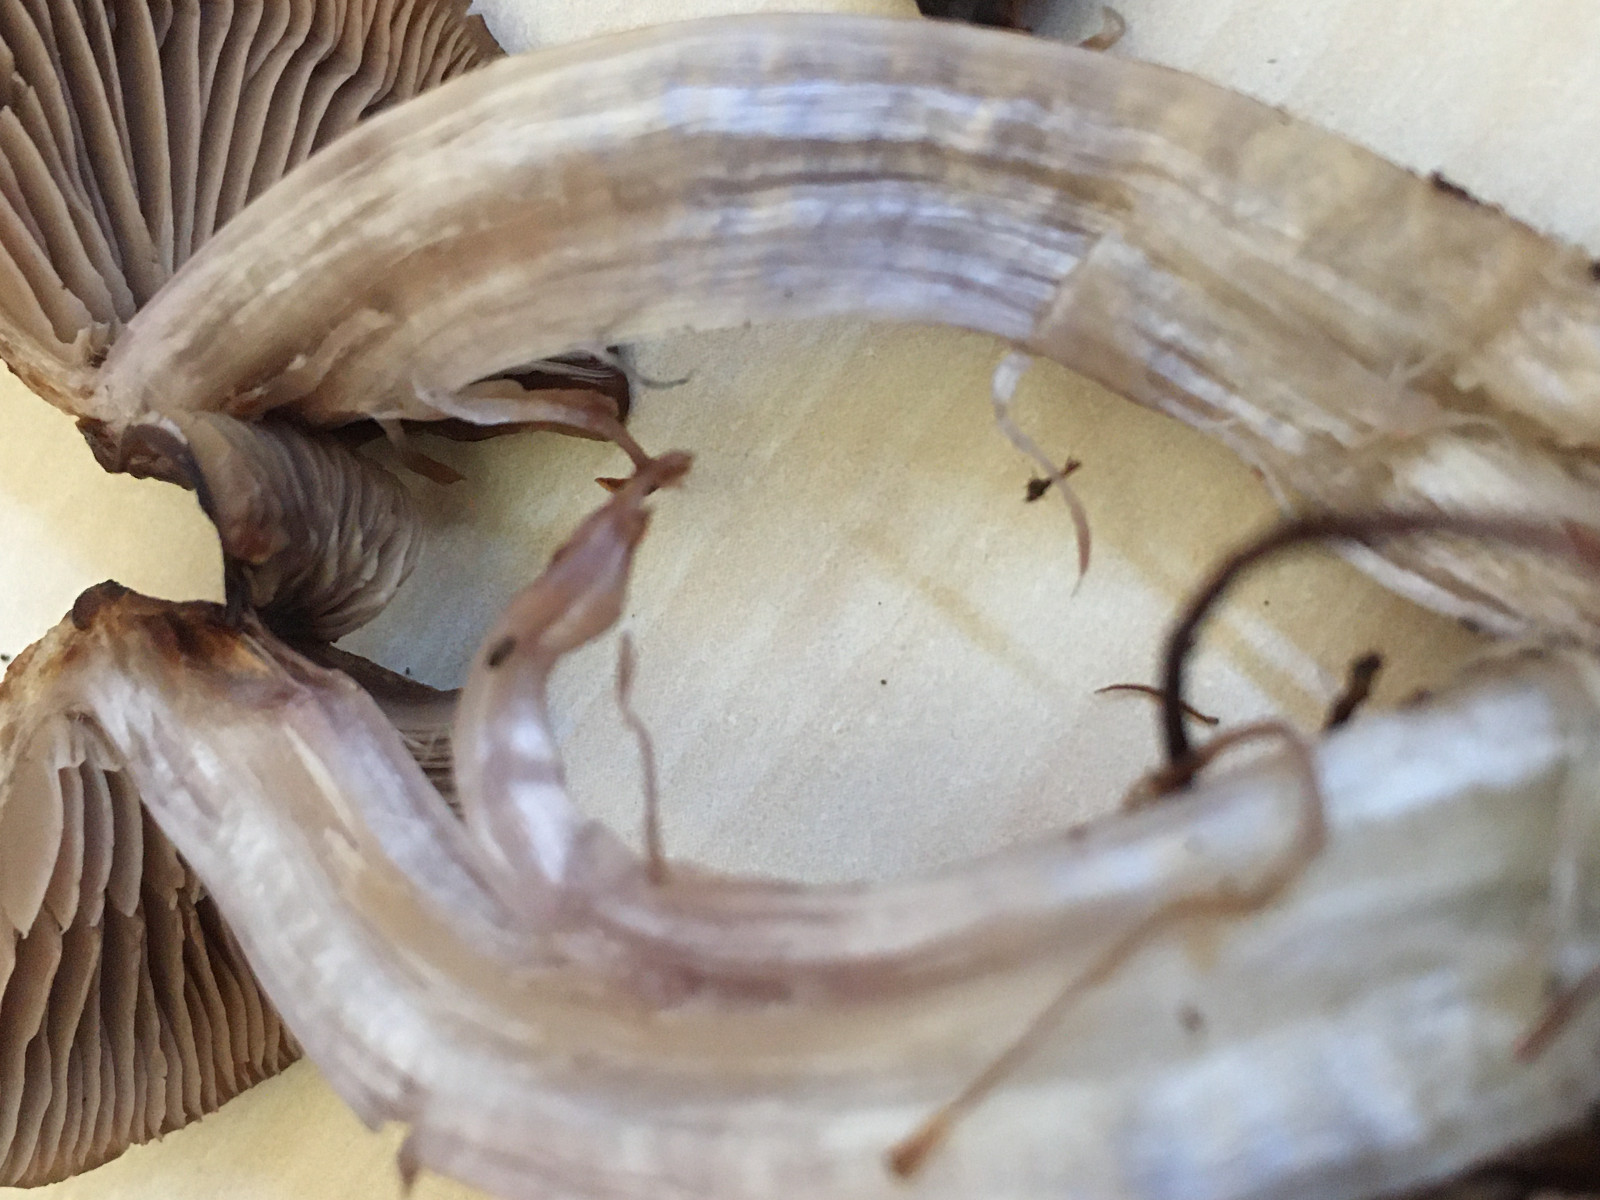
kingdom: Fungi
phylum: Basidiomycota
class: Agaricomycetes
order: Agaricales
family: Cortinariaceae
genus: Cortinarius
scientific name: Cortinarius
